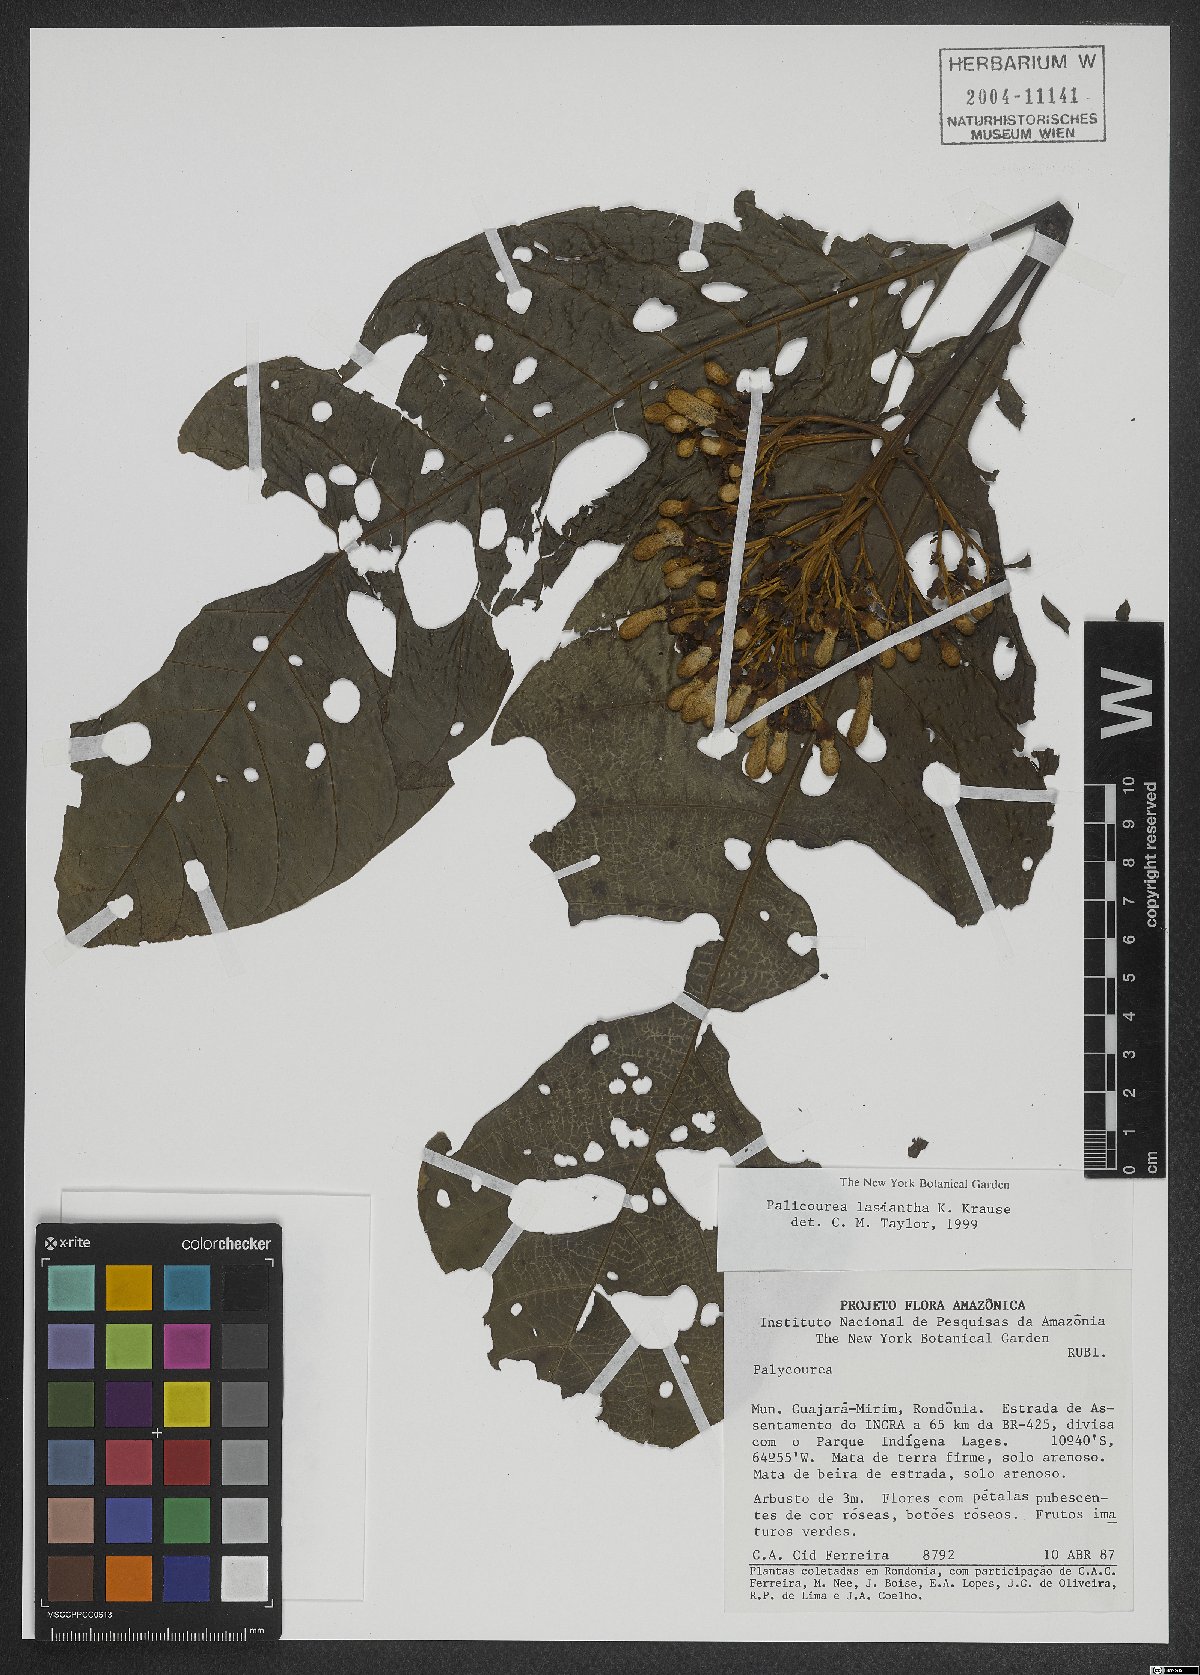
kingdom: Plantae
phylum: Tracheophyta
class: Magnoliopsida
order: Gentianales
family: Rubiaceae
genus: Palicourea
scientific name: Palicourea lasiantha
